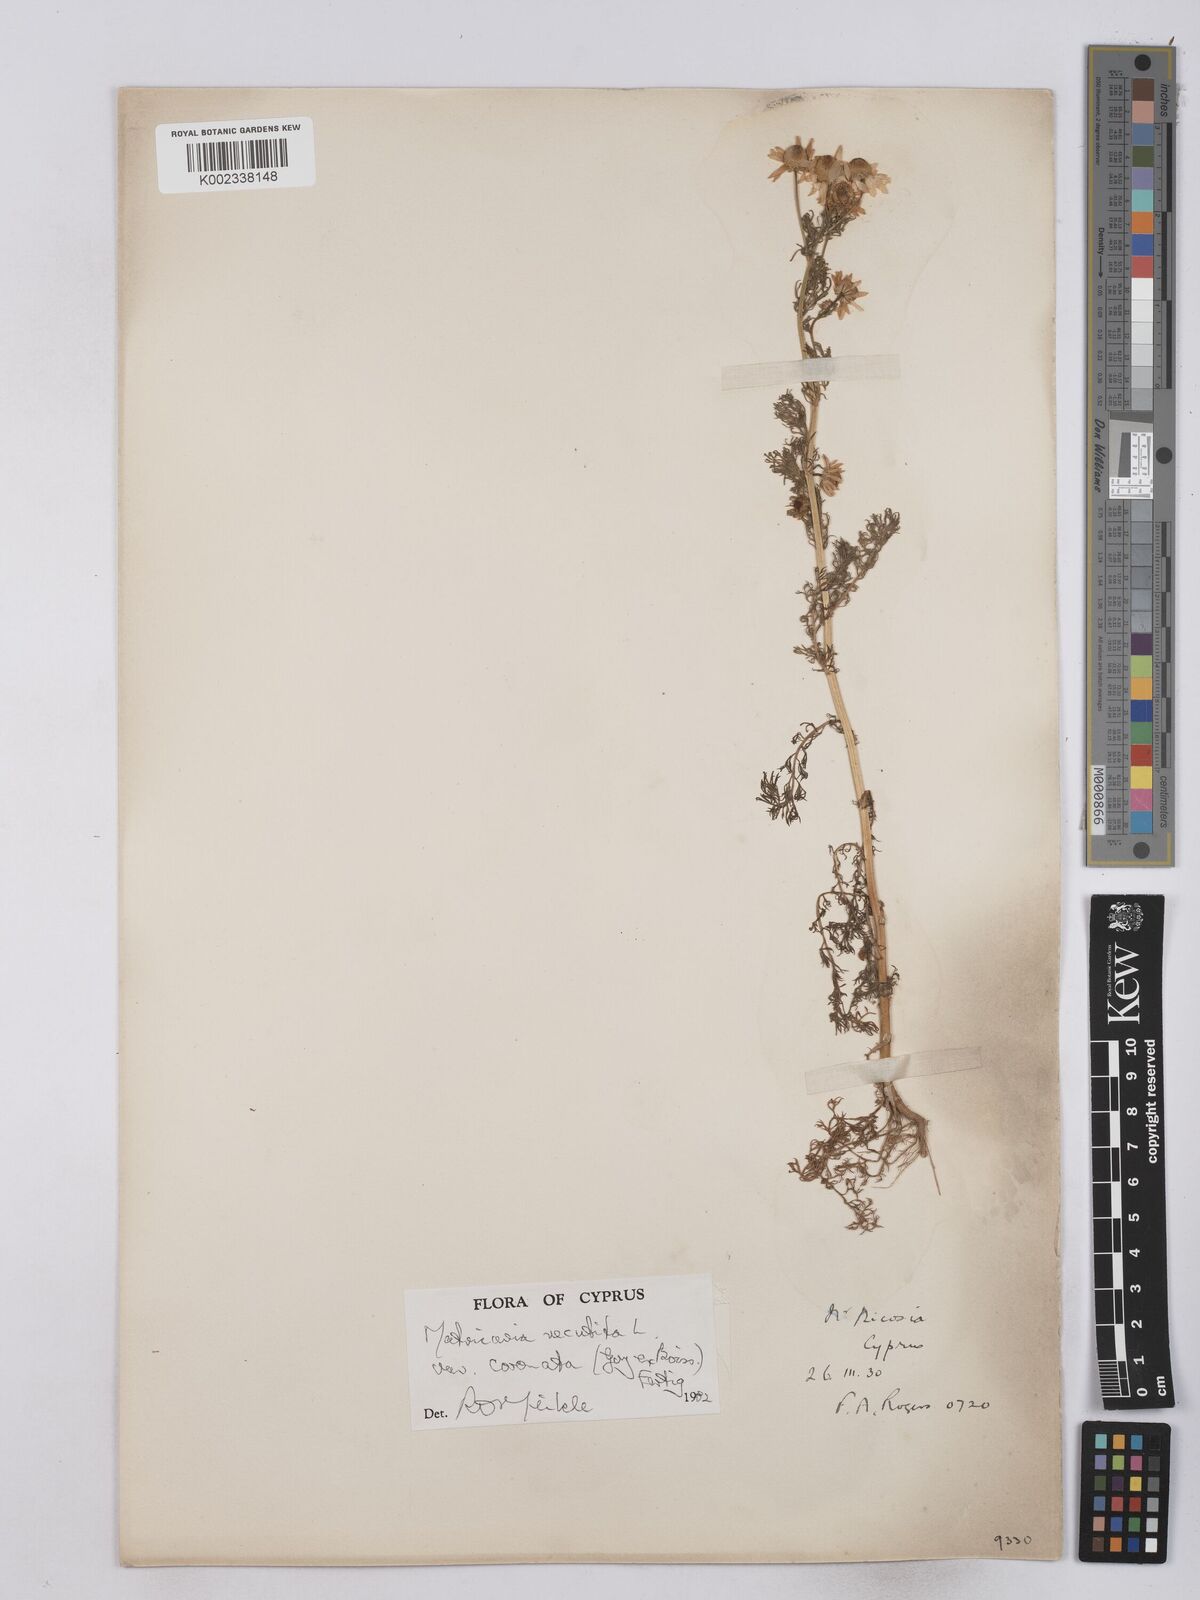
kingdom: Plantae
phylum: Tracheophyta
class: Magnoliopsida
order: Asterales
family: Asteraceae
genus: Matricaria
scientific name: Matricaria chamomilla
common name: Scented mayweed
